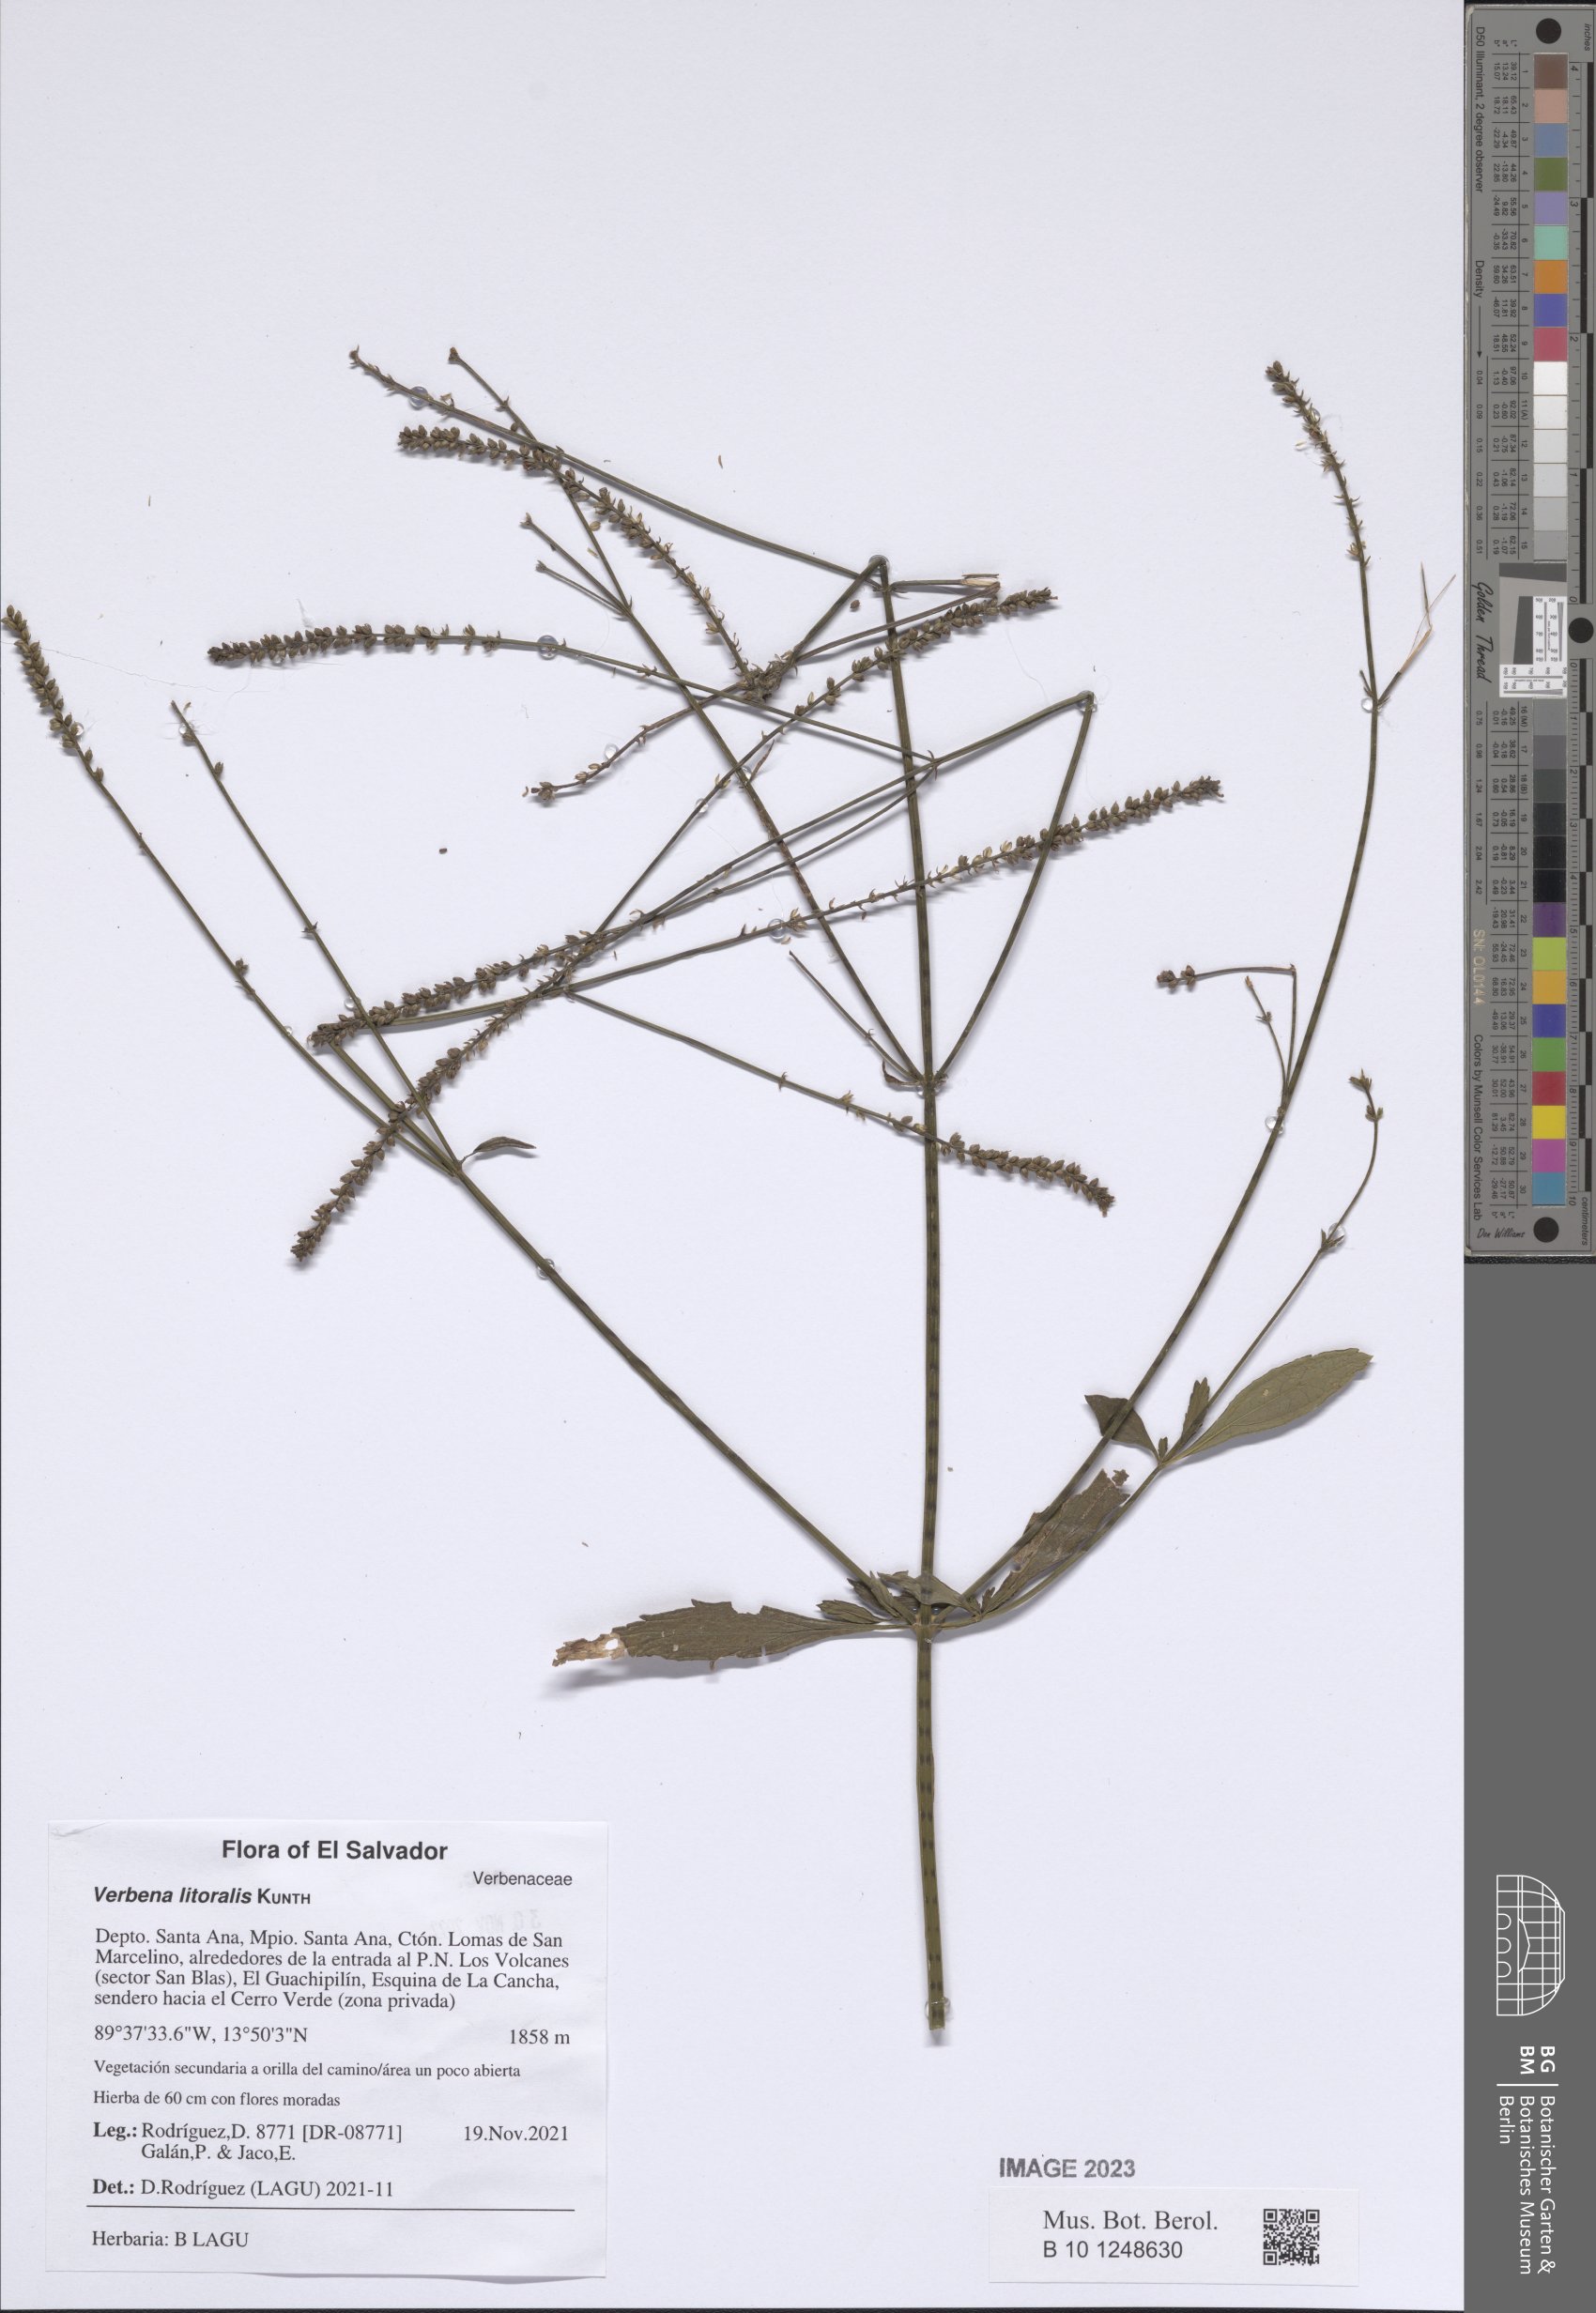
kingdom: Plantae
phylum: Tracheophyta
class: Magnoliopsida
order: Lamiales
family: Verbenaceae
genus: Verbena
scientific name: Verbena litoralis
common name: Seashore vervain
